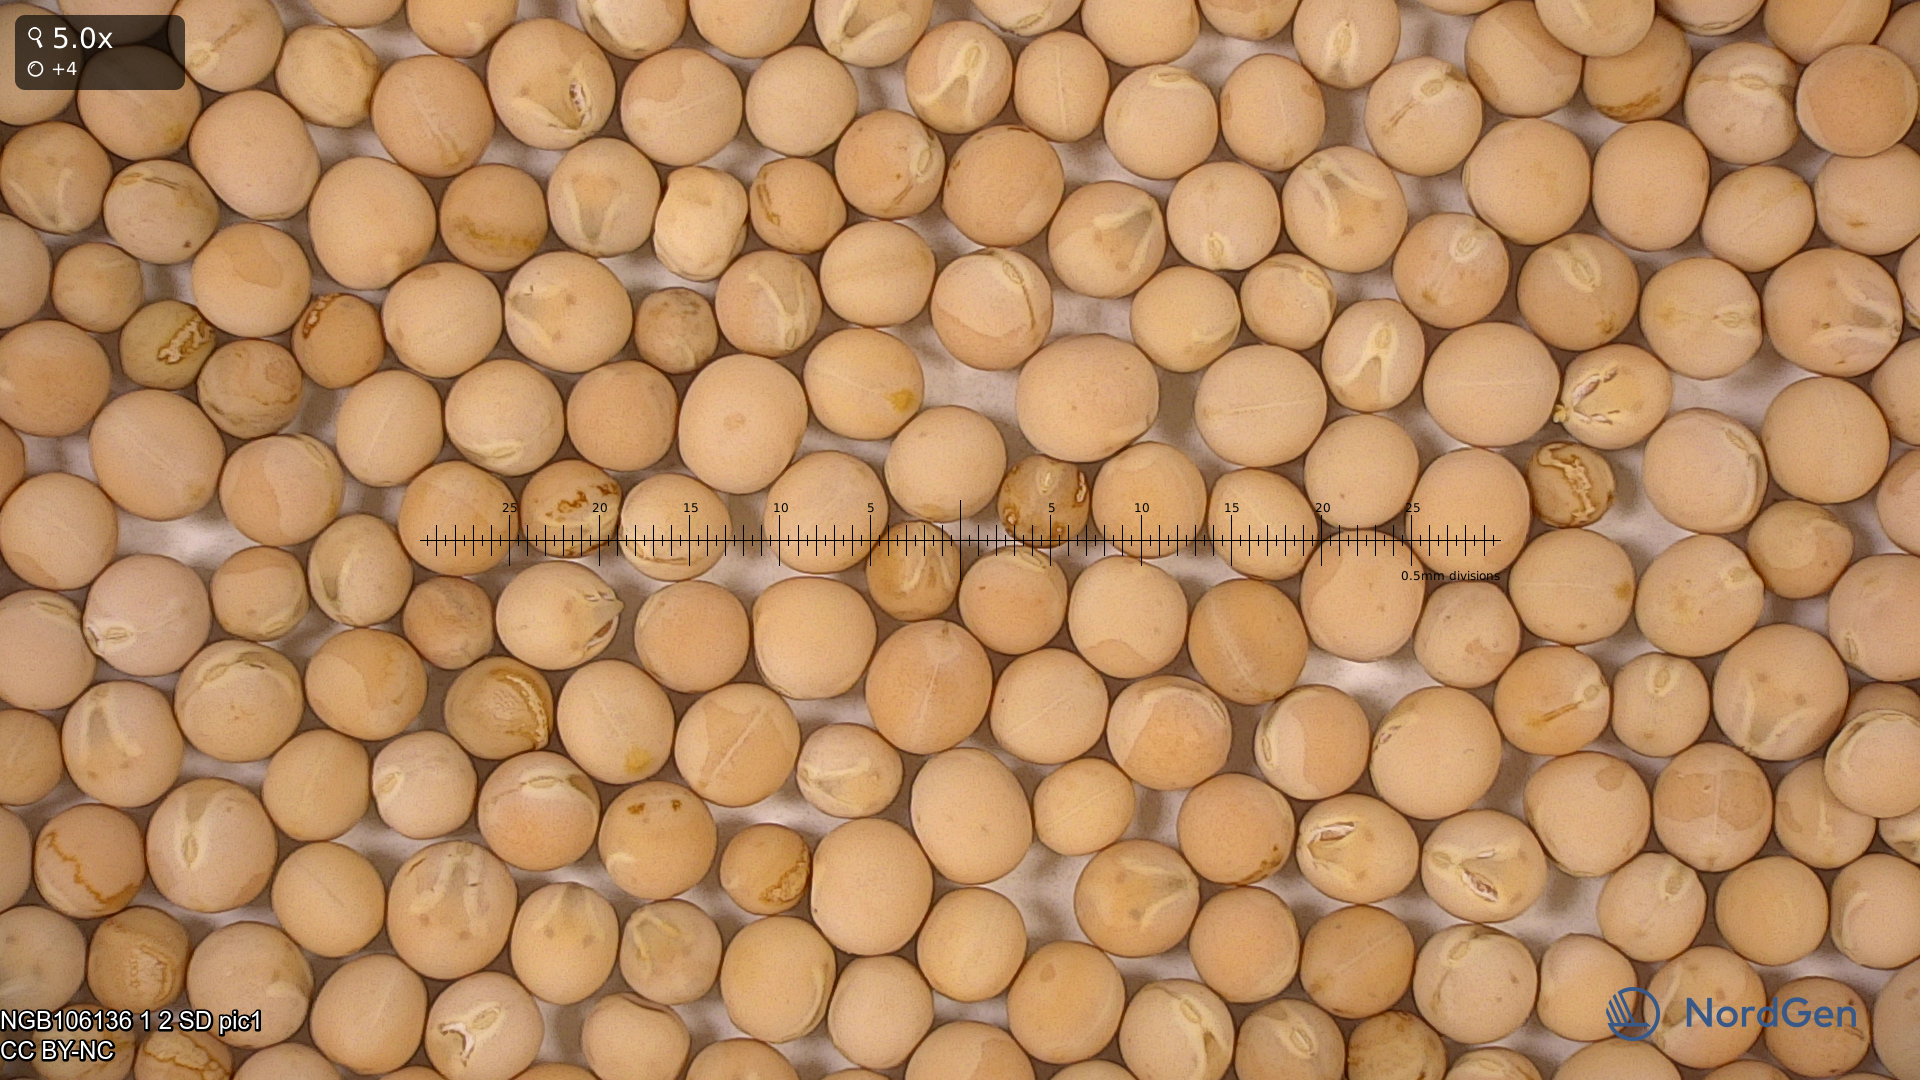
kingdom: Plantae
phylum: Tracheophyta
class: Magnoliopsida
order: Fabales
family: Fabaceae
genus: Lathyrus
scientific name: Lathyrus oleraceus
